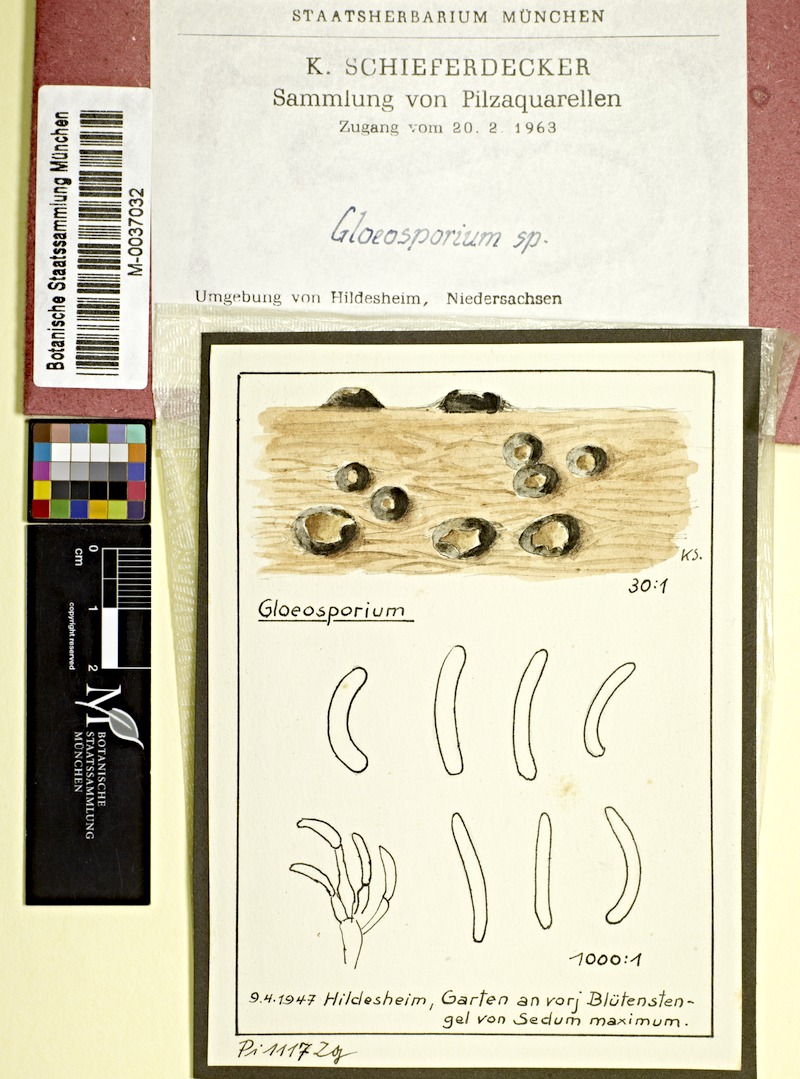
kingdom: Fungi
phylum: Ascomycota
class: Leotiomycetes
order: Helotiales
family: Drepanopezizaceae
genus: Gloeosporium
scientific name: Gloeosporium
